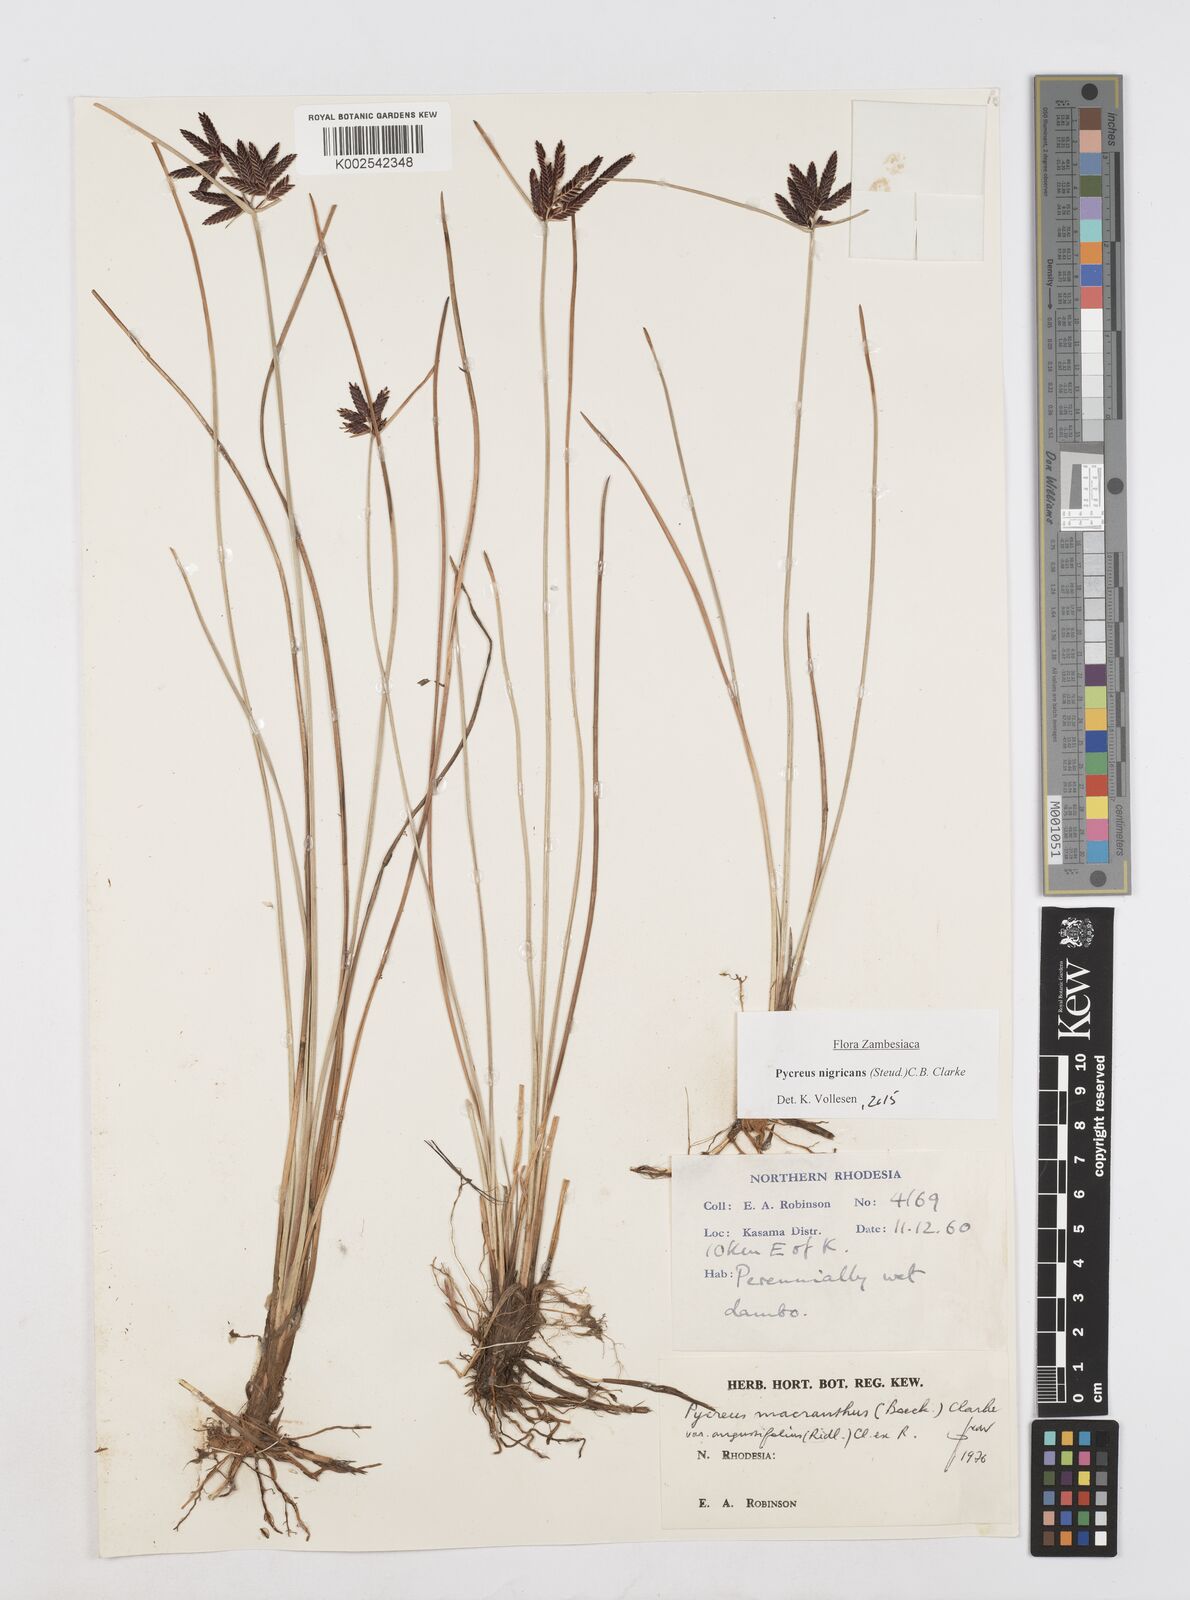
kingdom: Plantae
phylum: Tracheophyta
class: Liliopsida
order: Poales
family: Cyperaceae
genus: Cyperus
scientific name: Cyperus nigricans
